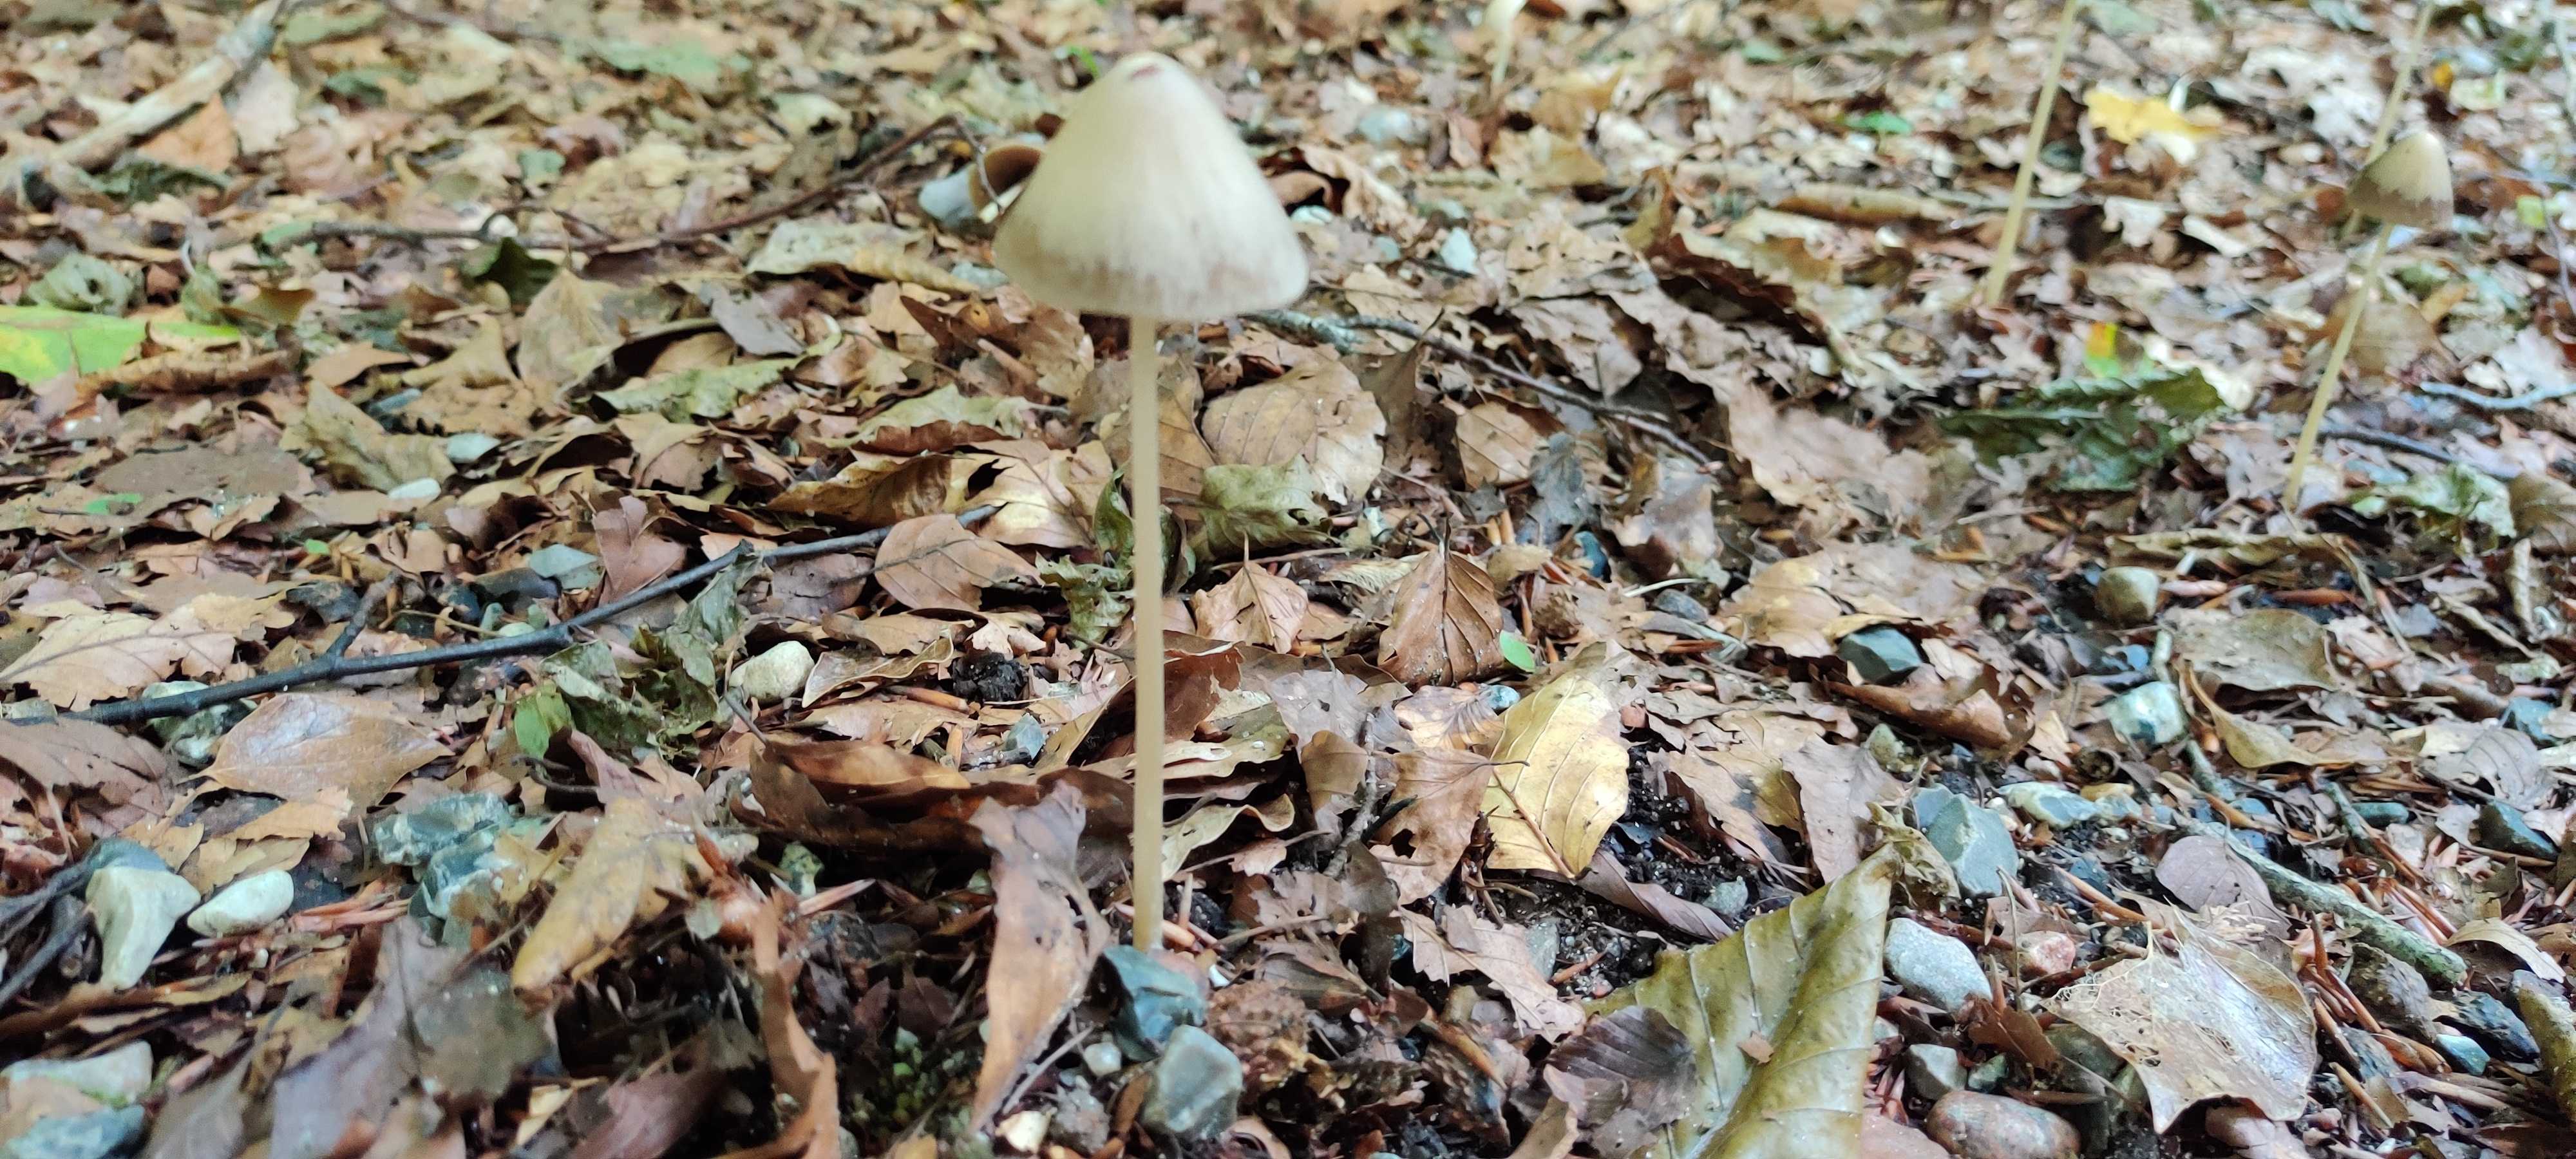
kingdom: Fungi
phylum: Basidiomycota
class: Agaricomycetes
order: Agaricales
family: Psathyrellaceae
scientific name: Psathyrellaceae
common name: mørkhatfamilien
